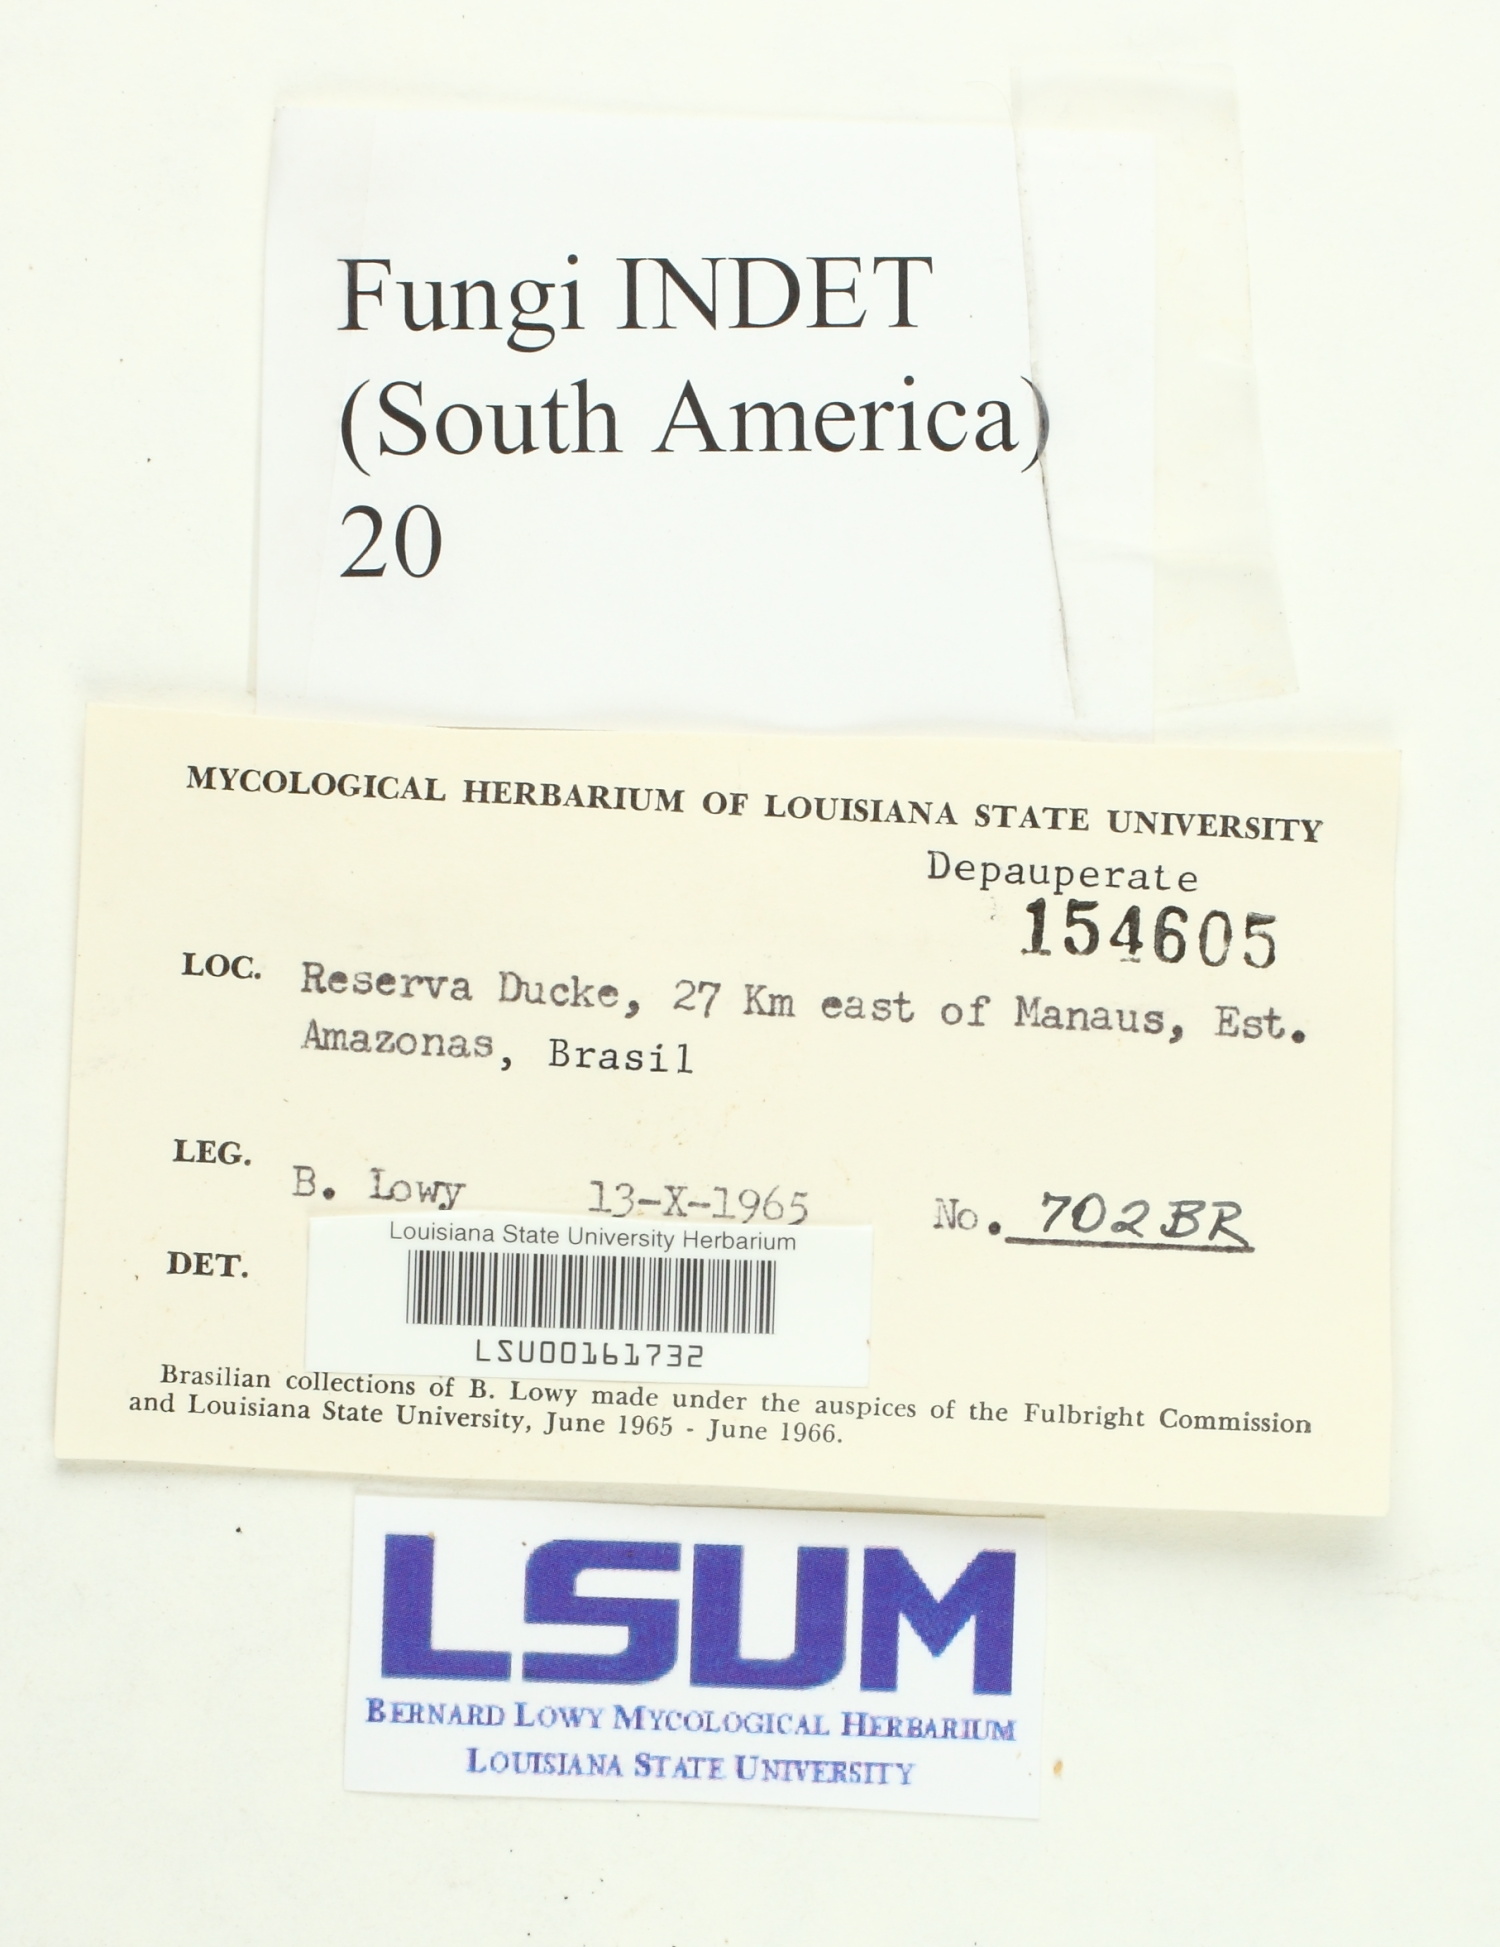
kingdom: Fungi
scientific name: Fungi
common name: Fungi
